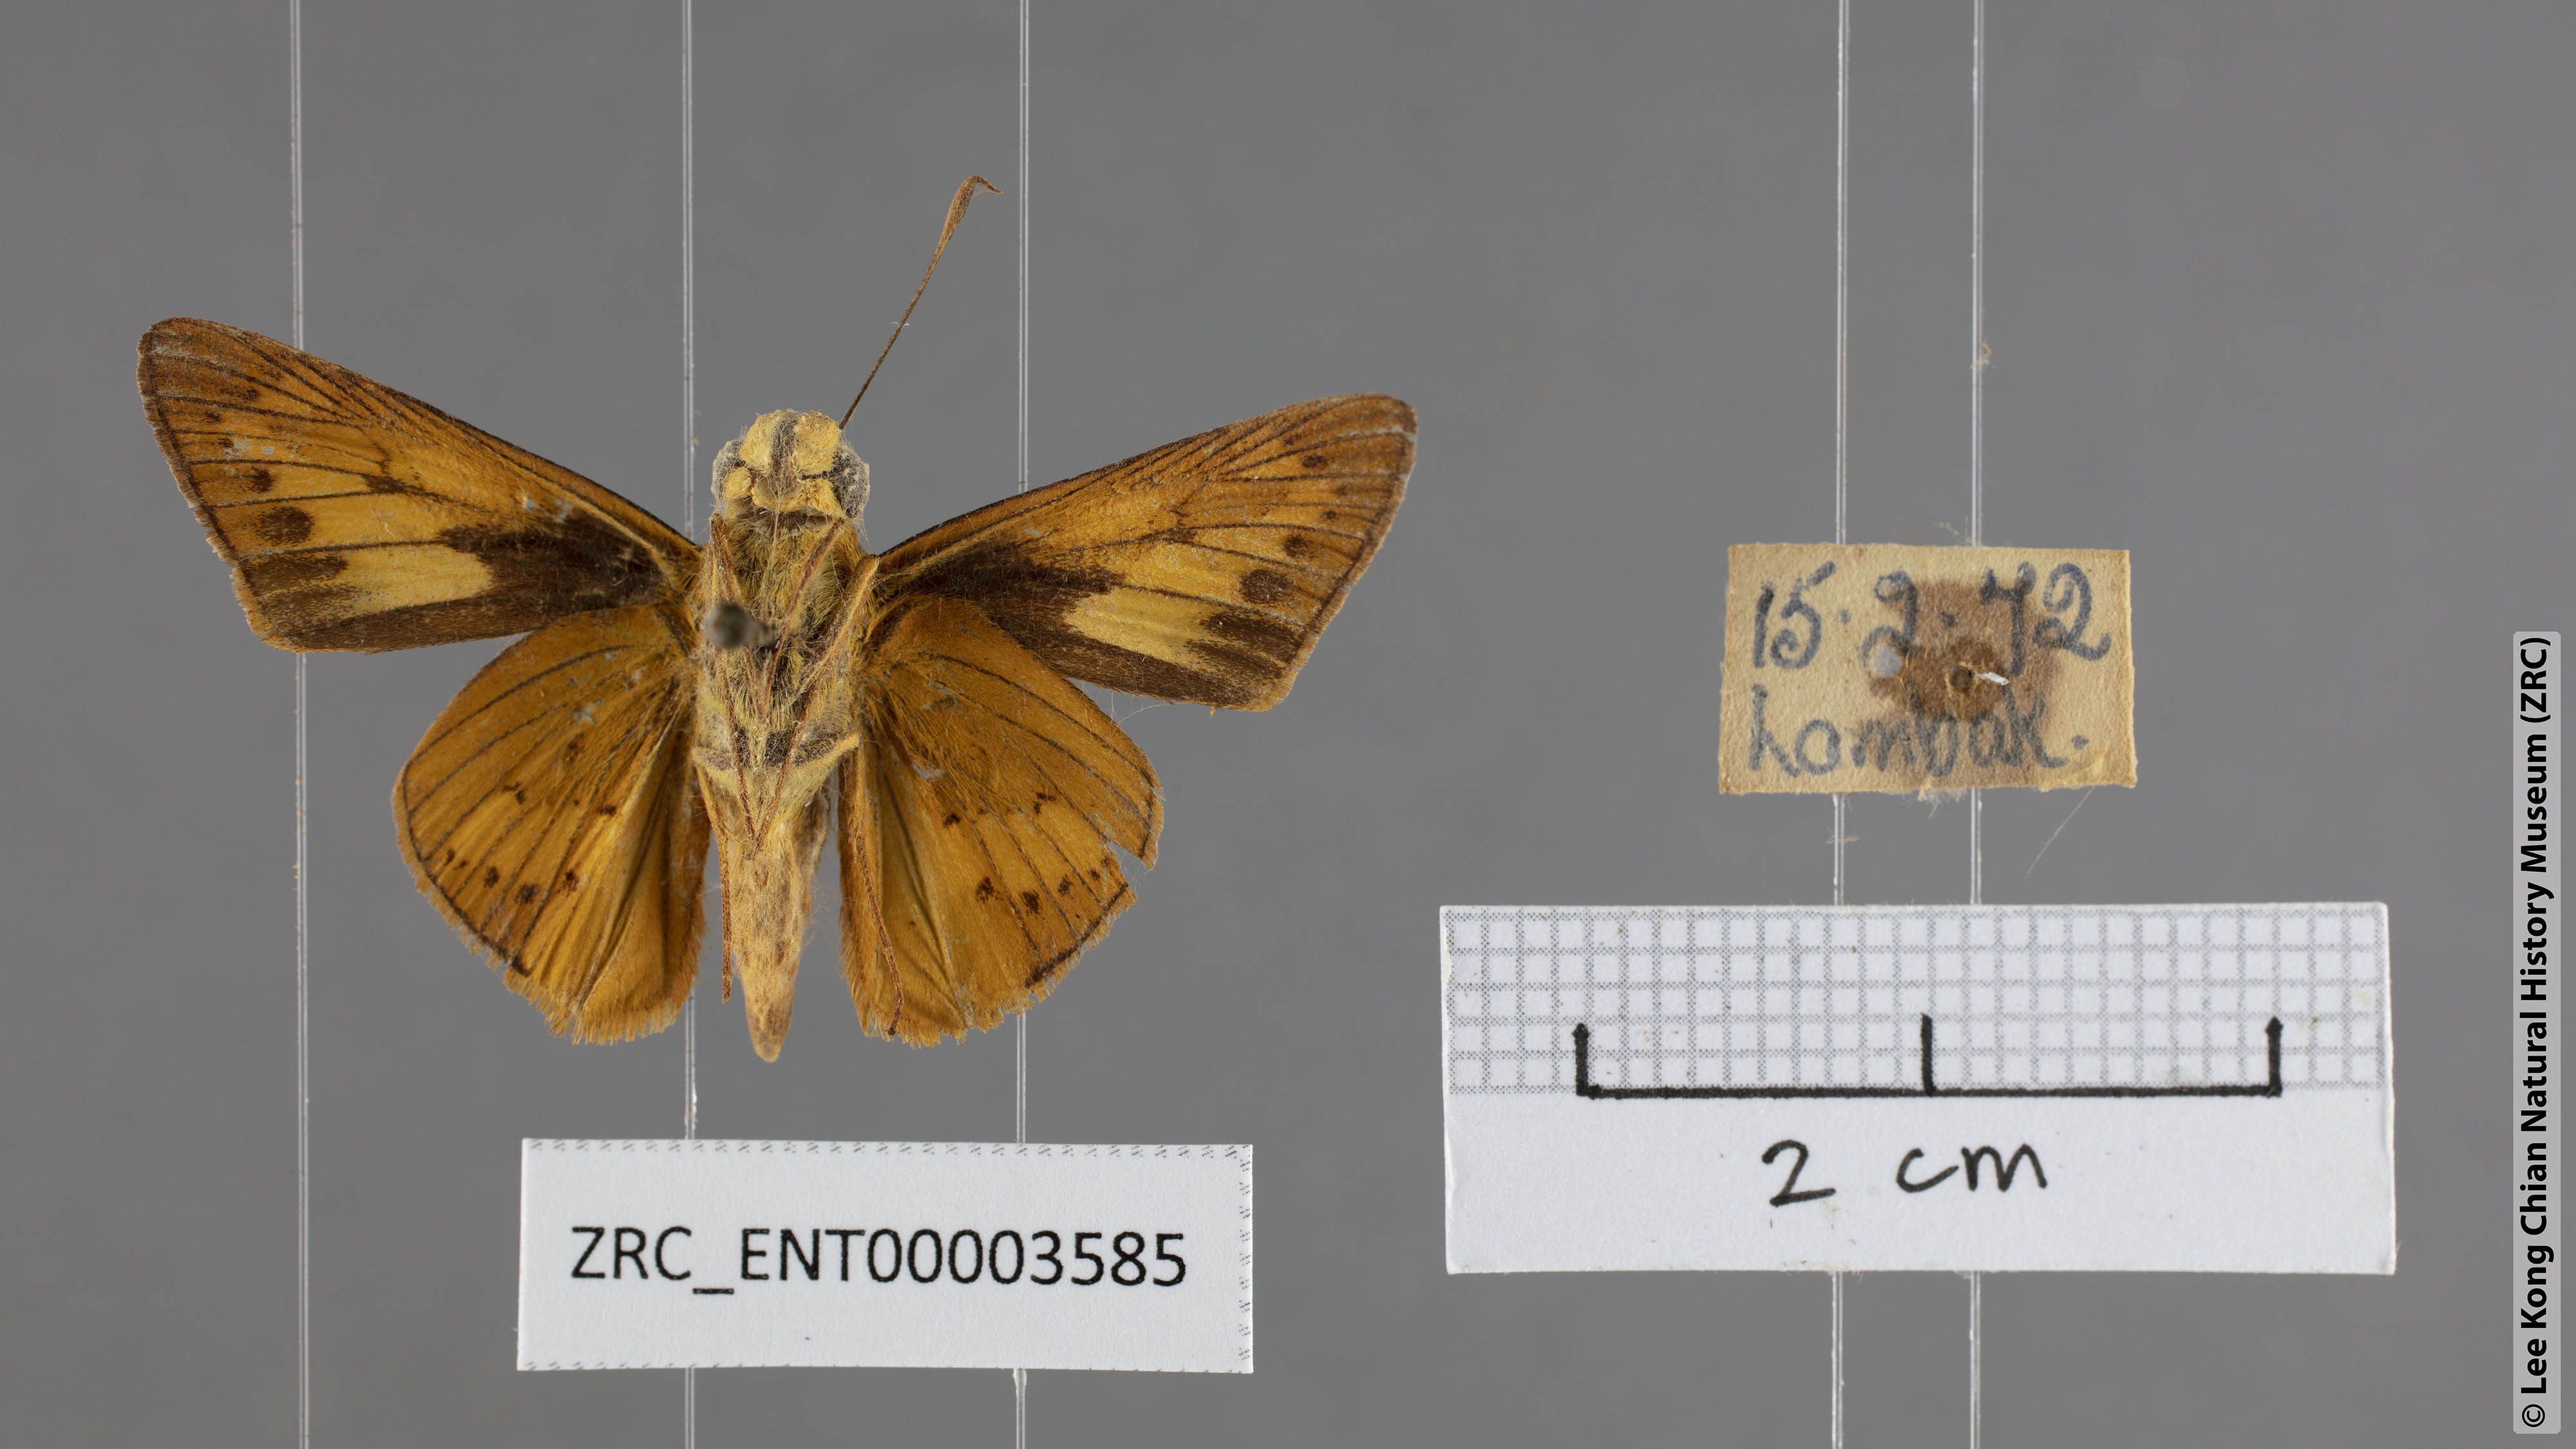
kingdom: Animalia
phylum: Arthropoda
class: Insecta
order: Lepidoptera
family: Hesperiidae
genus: Telicota
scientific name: Telicota besta
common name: Hainan palm dart
